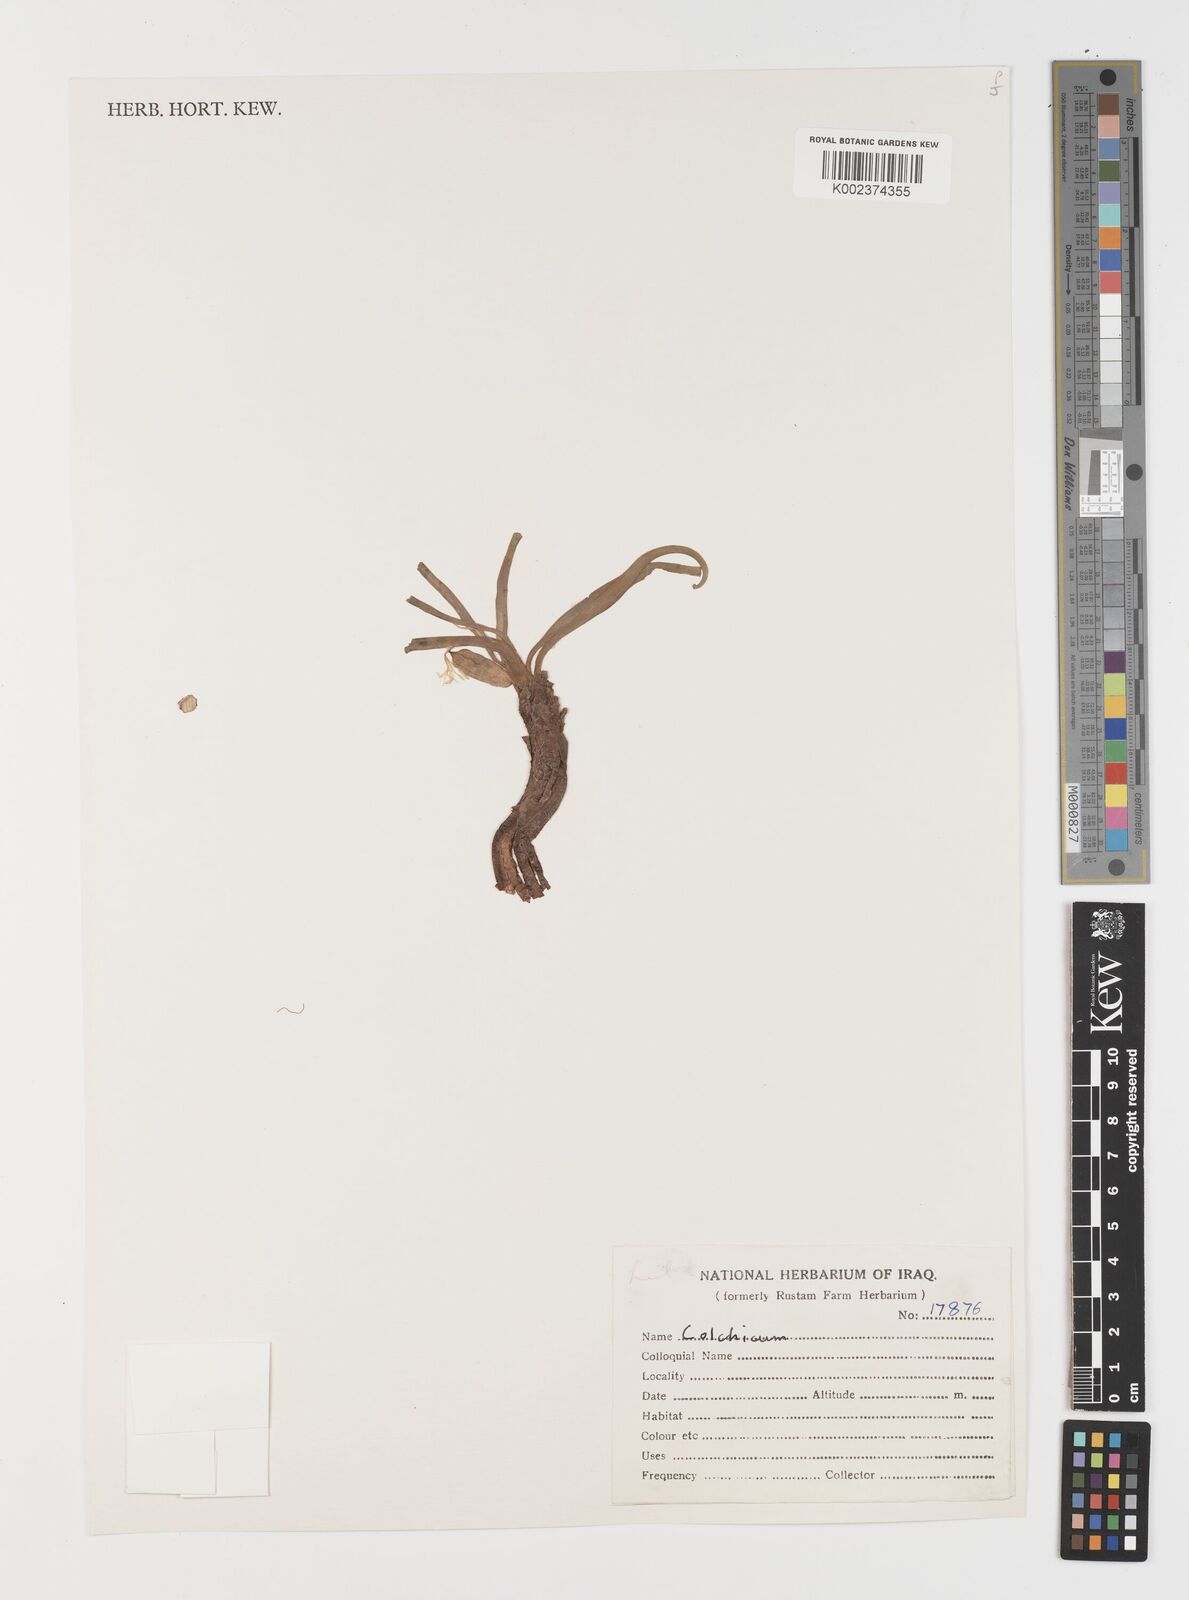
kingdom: Plantae
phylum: Tracheophyta
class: Liliopsida
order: Liliales
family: Colchicaceae
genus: Colchicum
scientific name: Colchicum
